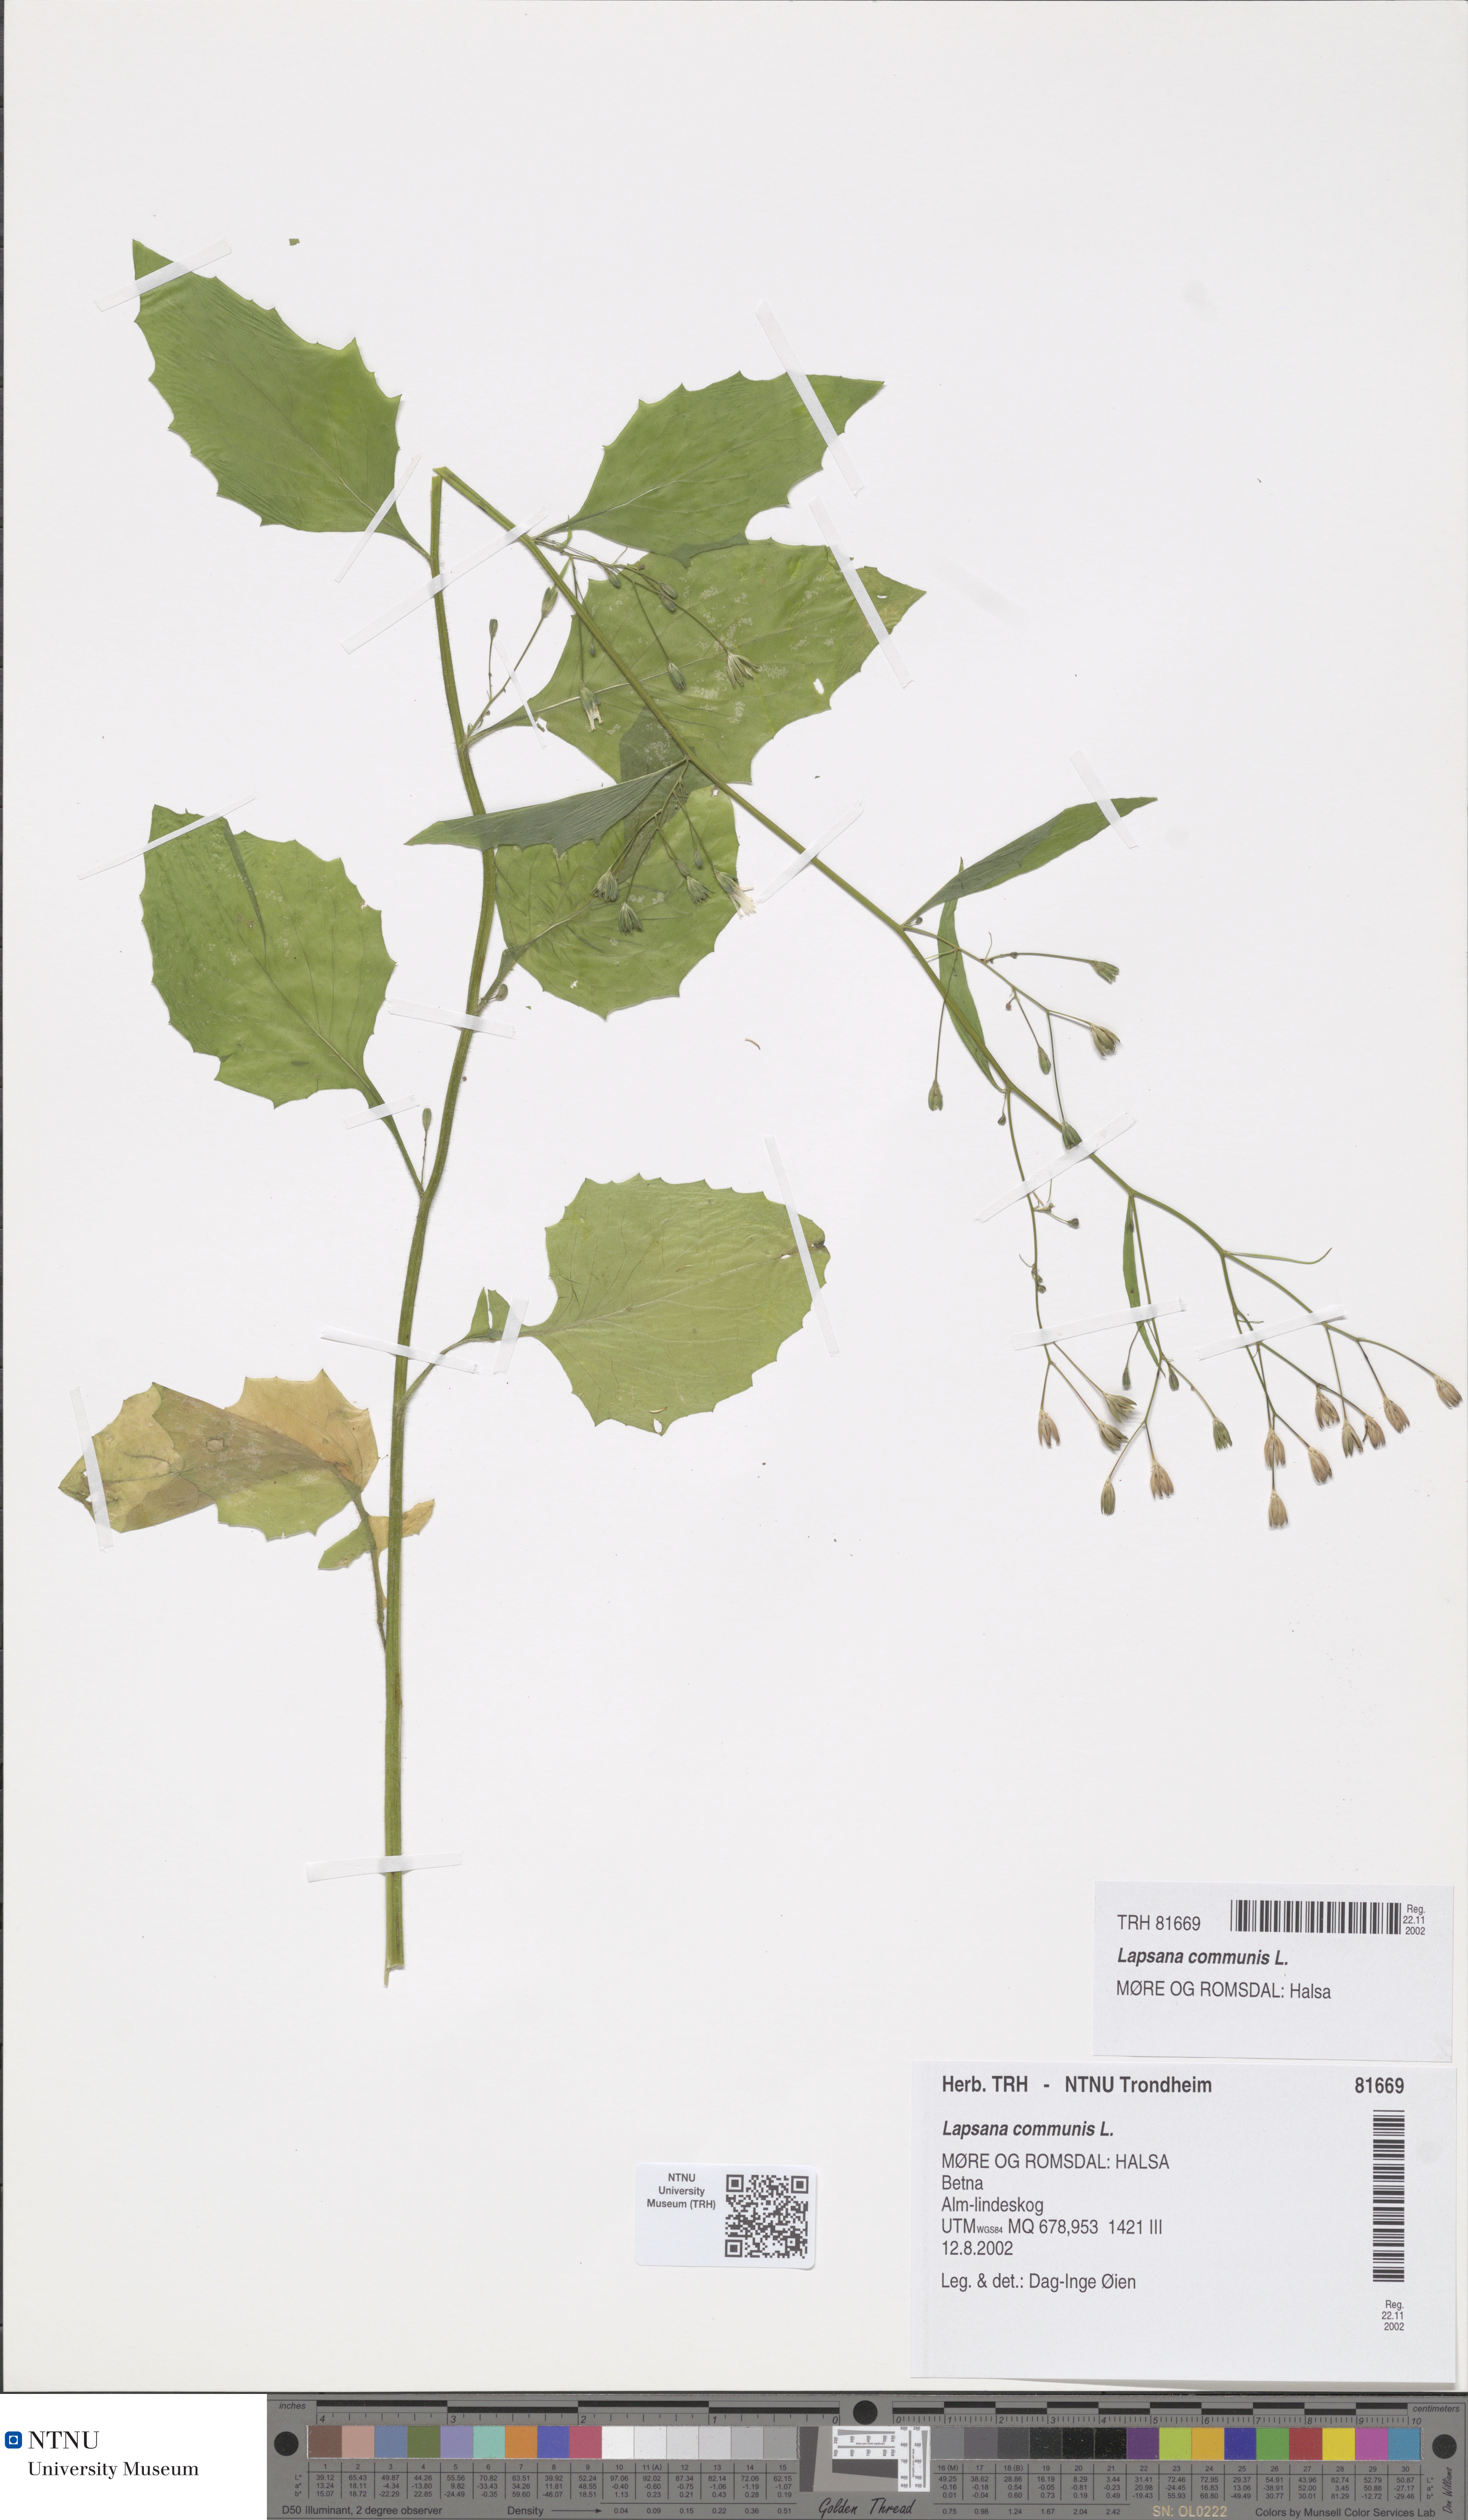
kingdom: Plantae
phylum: Tracheophyta
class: Magnoliopsida
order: Asterales
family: Asteraceae
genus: Lapsana
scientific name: Lapsana communis
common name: Nipplewort
